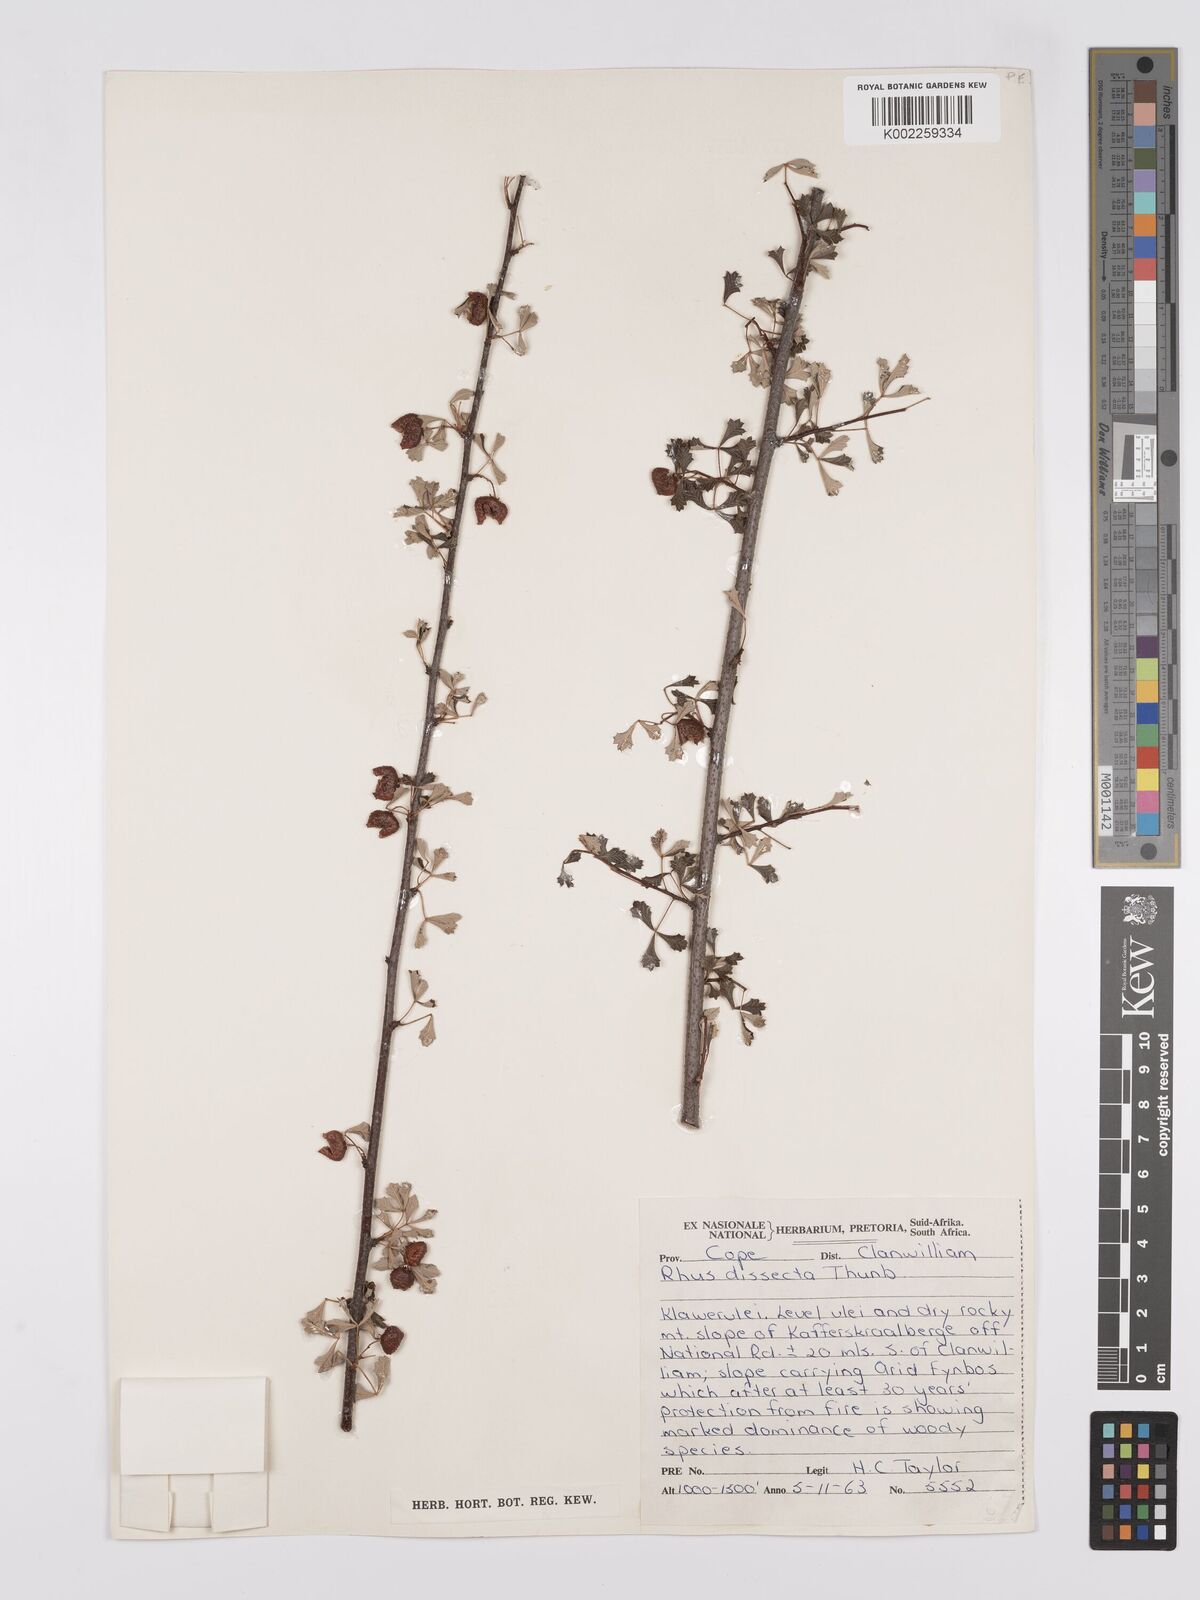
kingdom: Plantae
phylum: Tracheophyta
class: Magnoliopsida
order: Sapindales
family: Anacardiaceae
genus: Searsia
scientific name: Searsia dissecta
